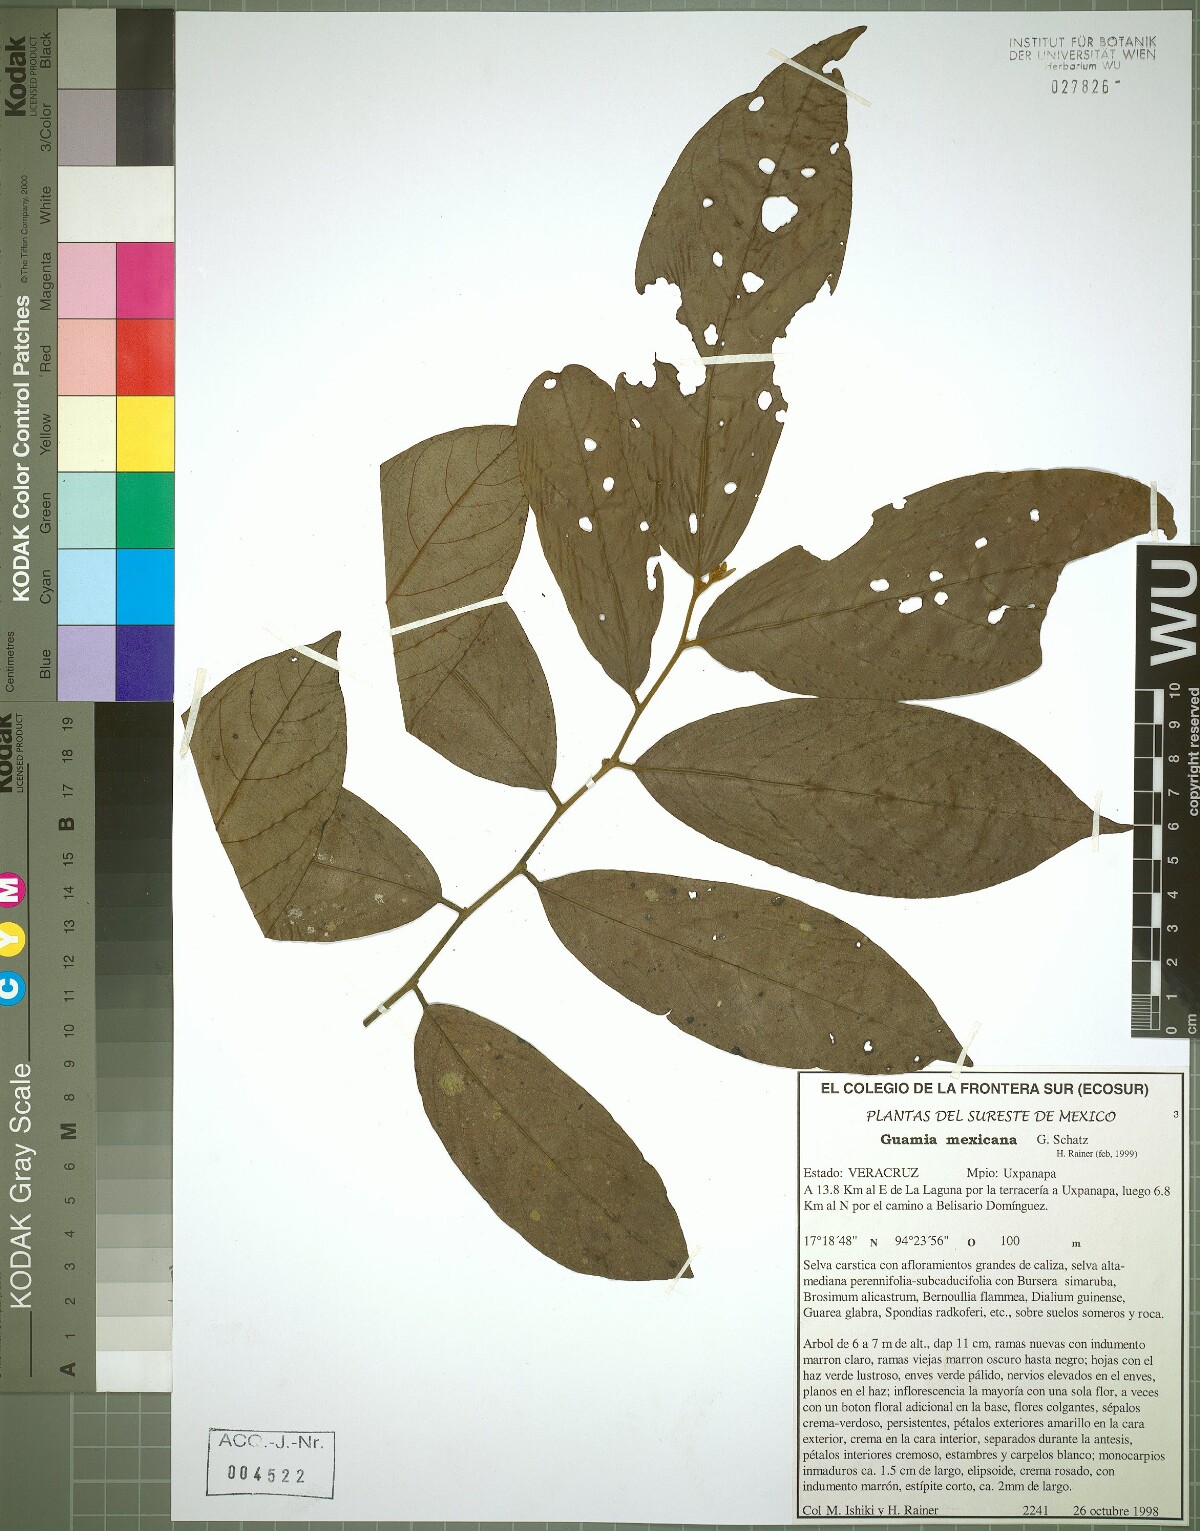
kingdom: Animalia
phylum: Mollusca
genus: Guamia
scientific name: Guamia
